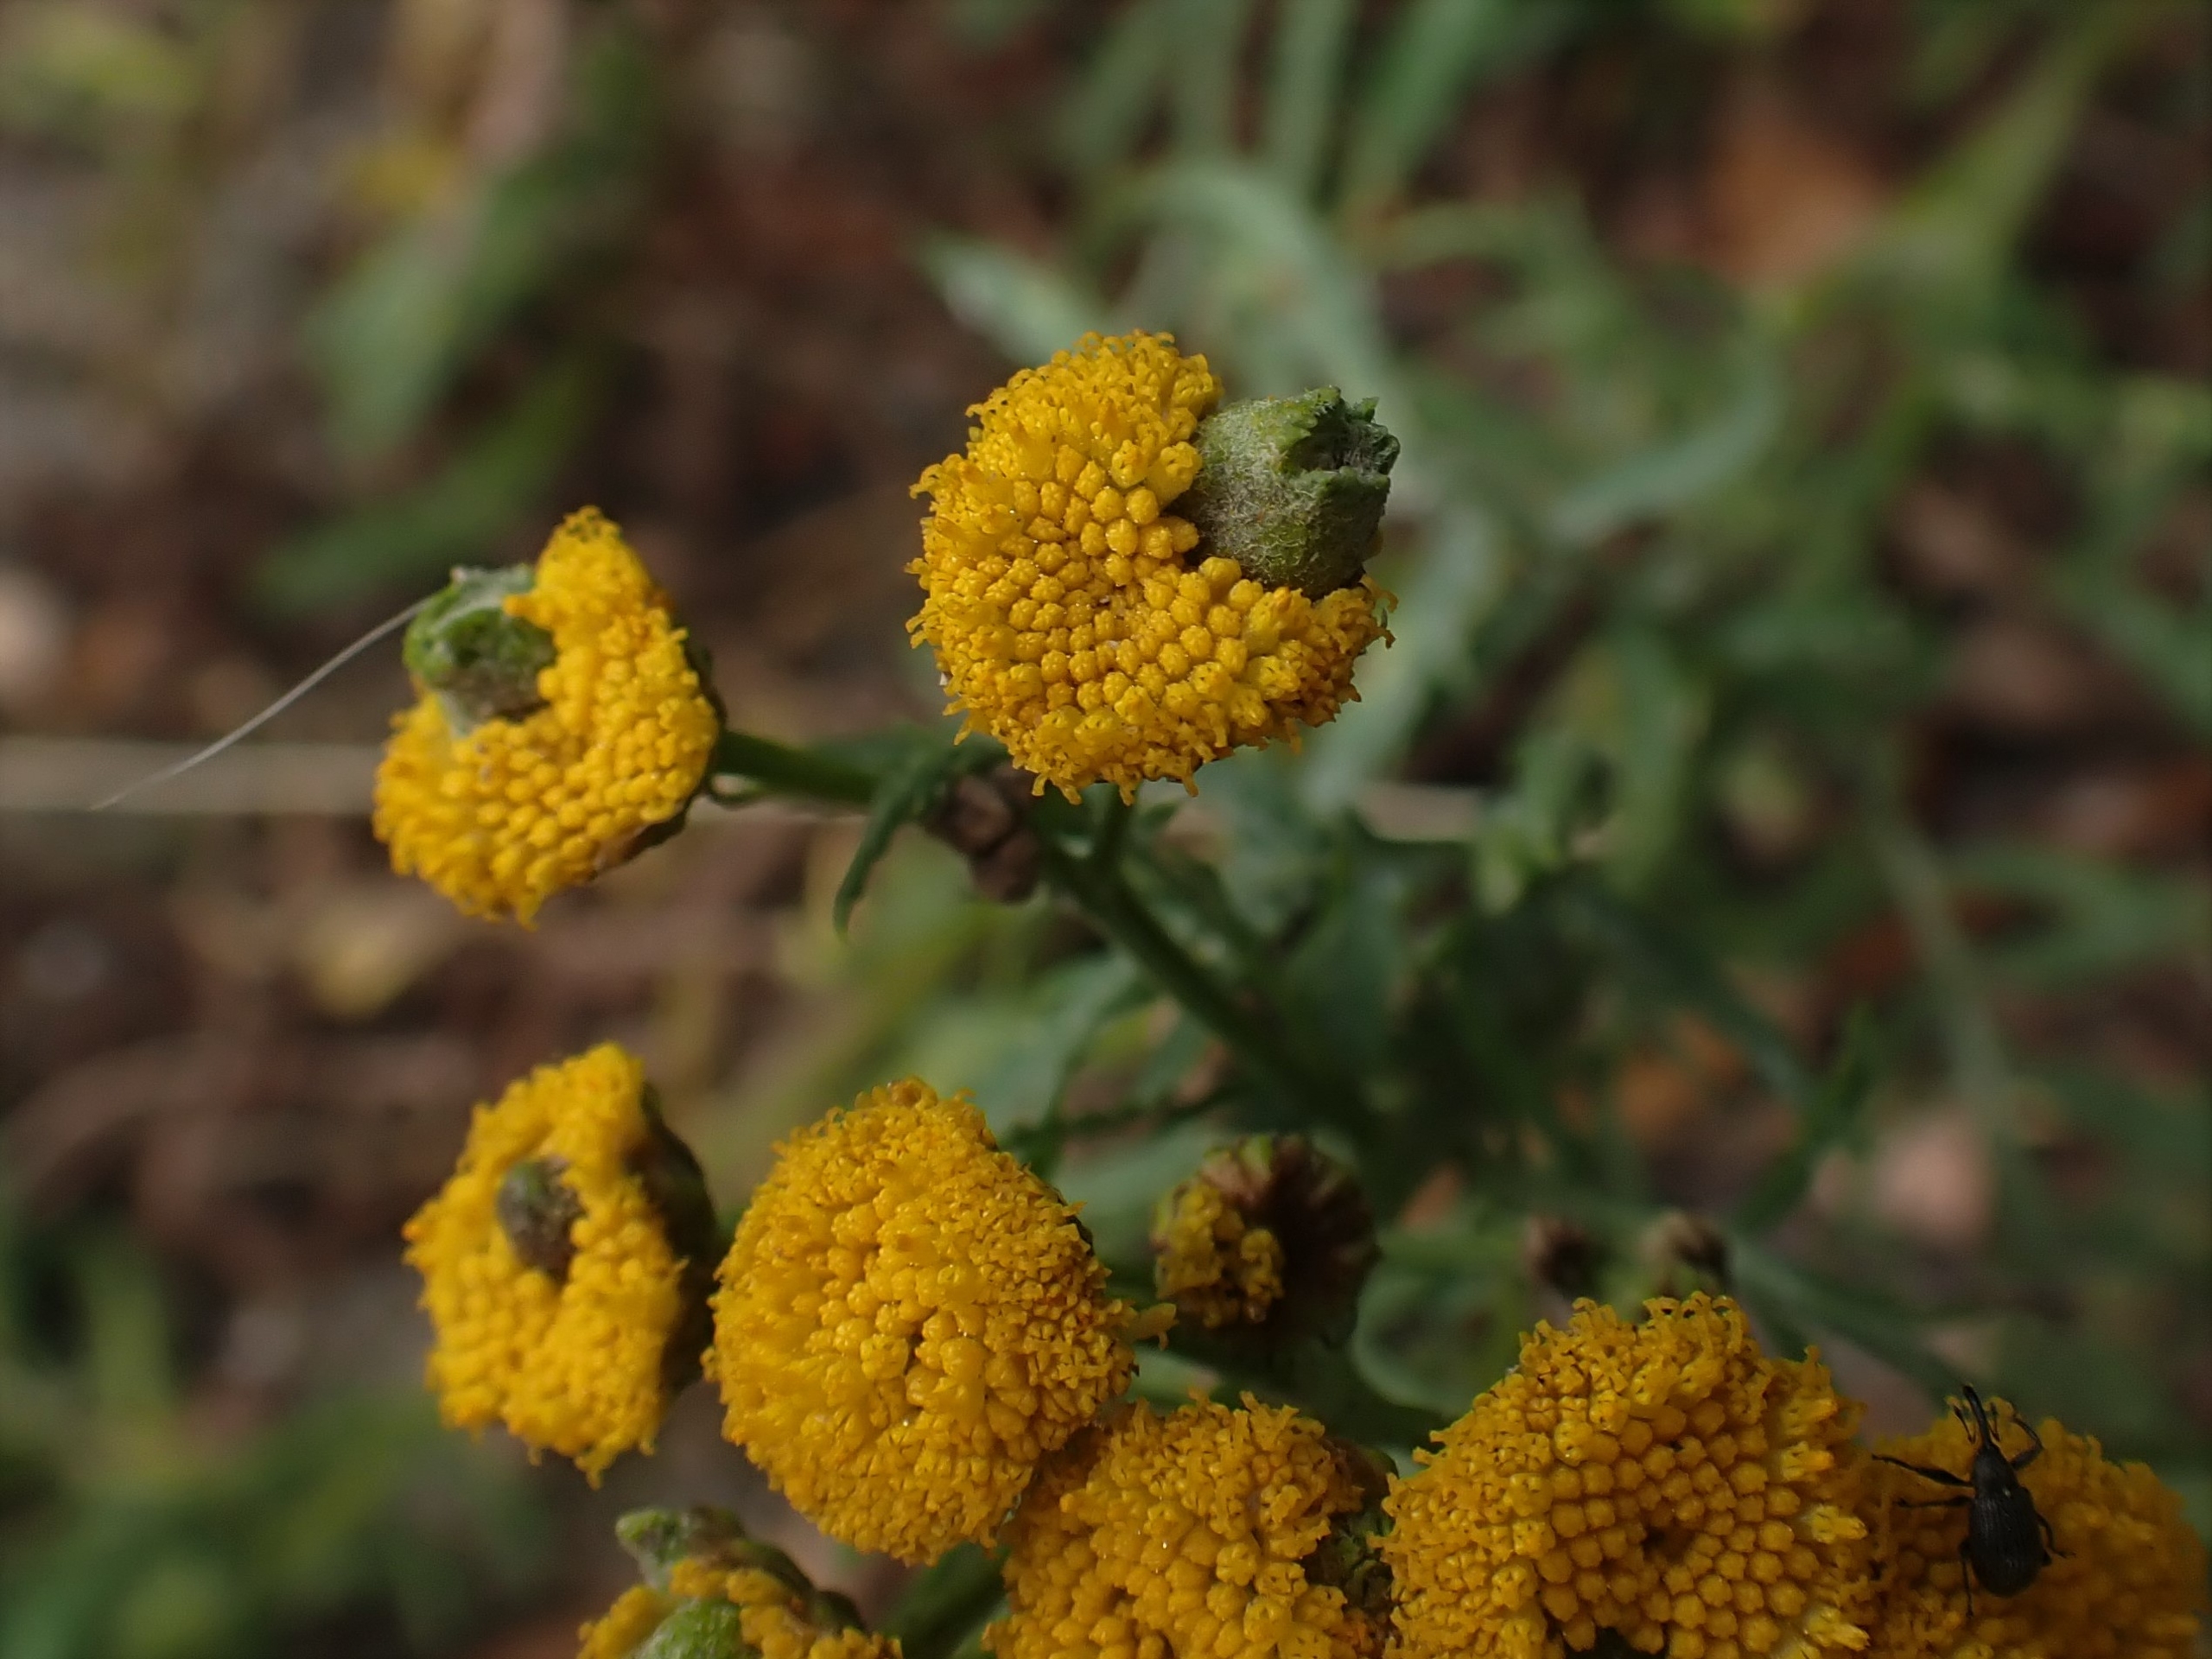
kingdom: Animalia
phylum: Arthropoda
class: Insecta
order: Diptera
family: Cecidomyiidae
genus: Rhopalomyia
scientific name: Rhopalomyia tanaceticolus
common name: Rejnfangalmyg
